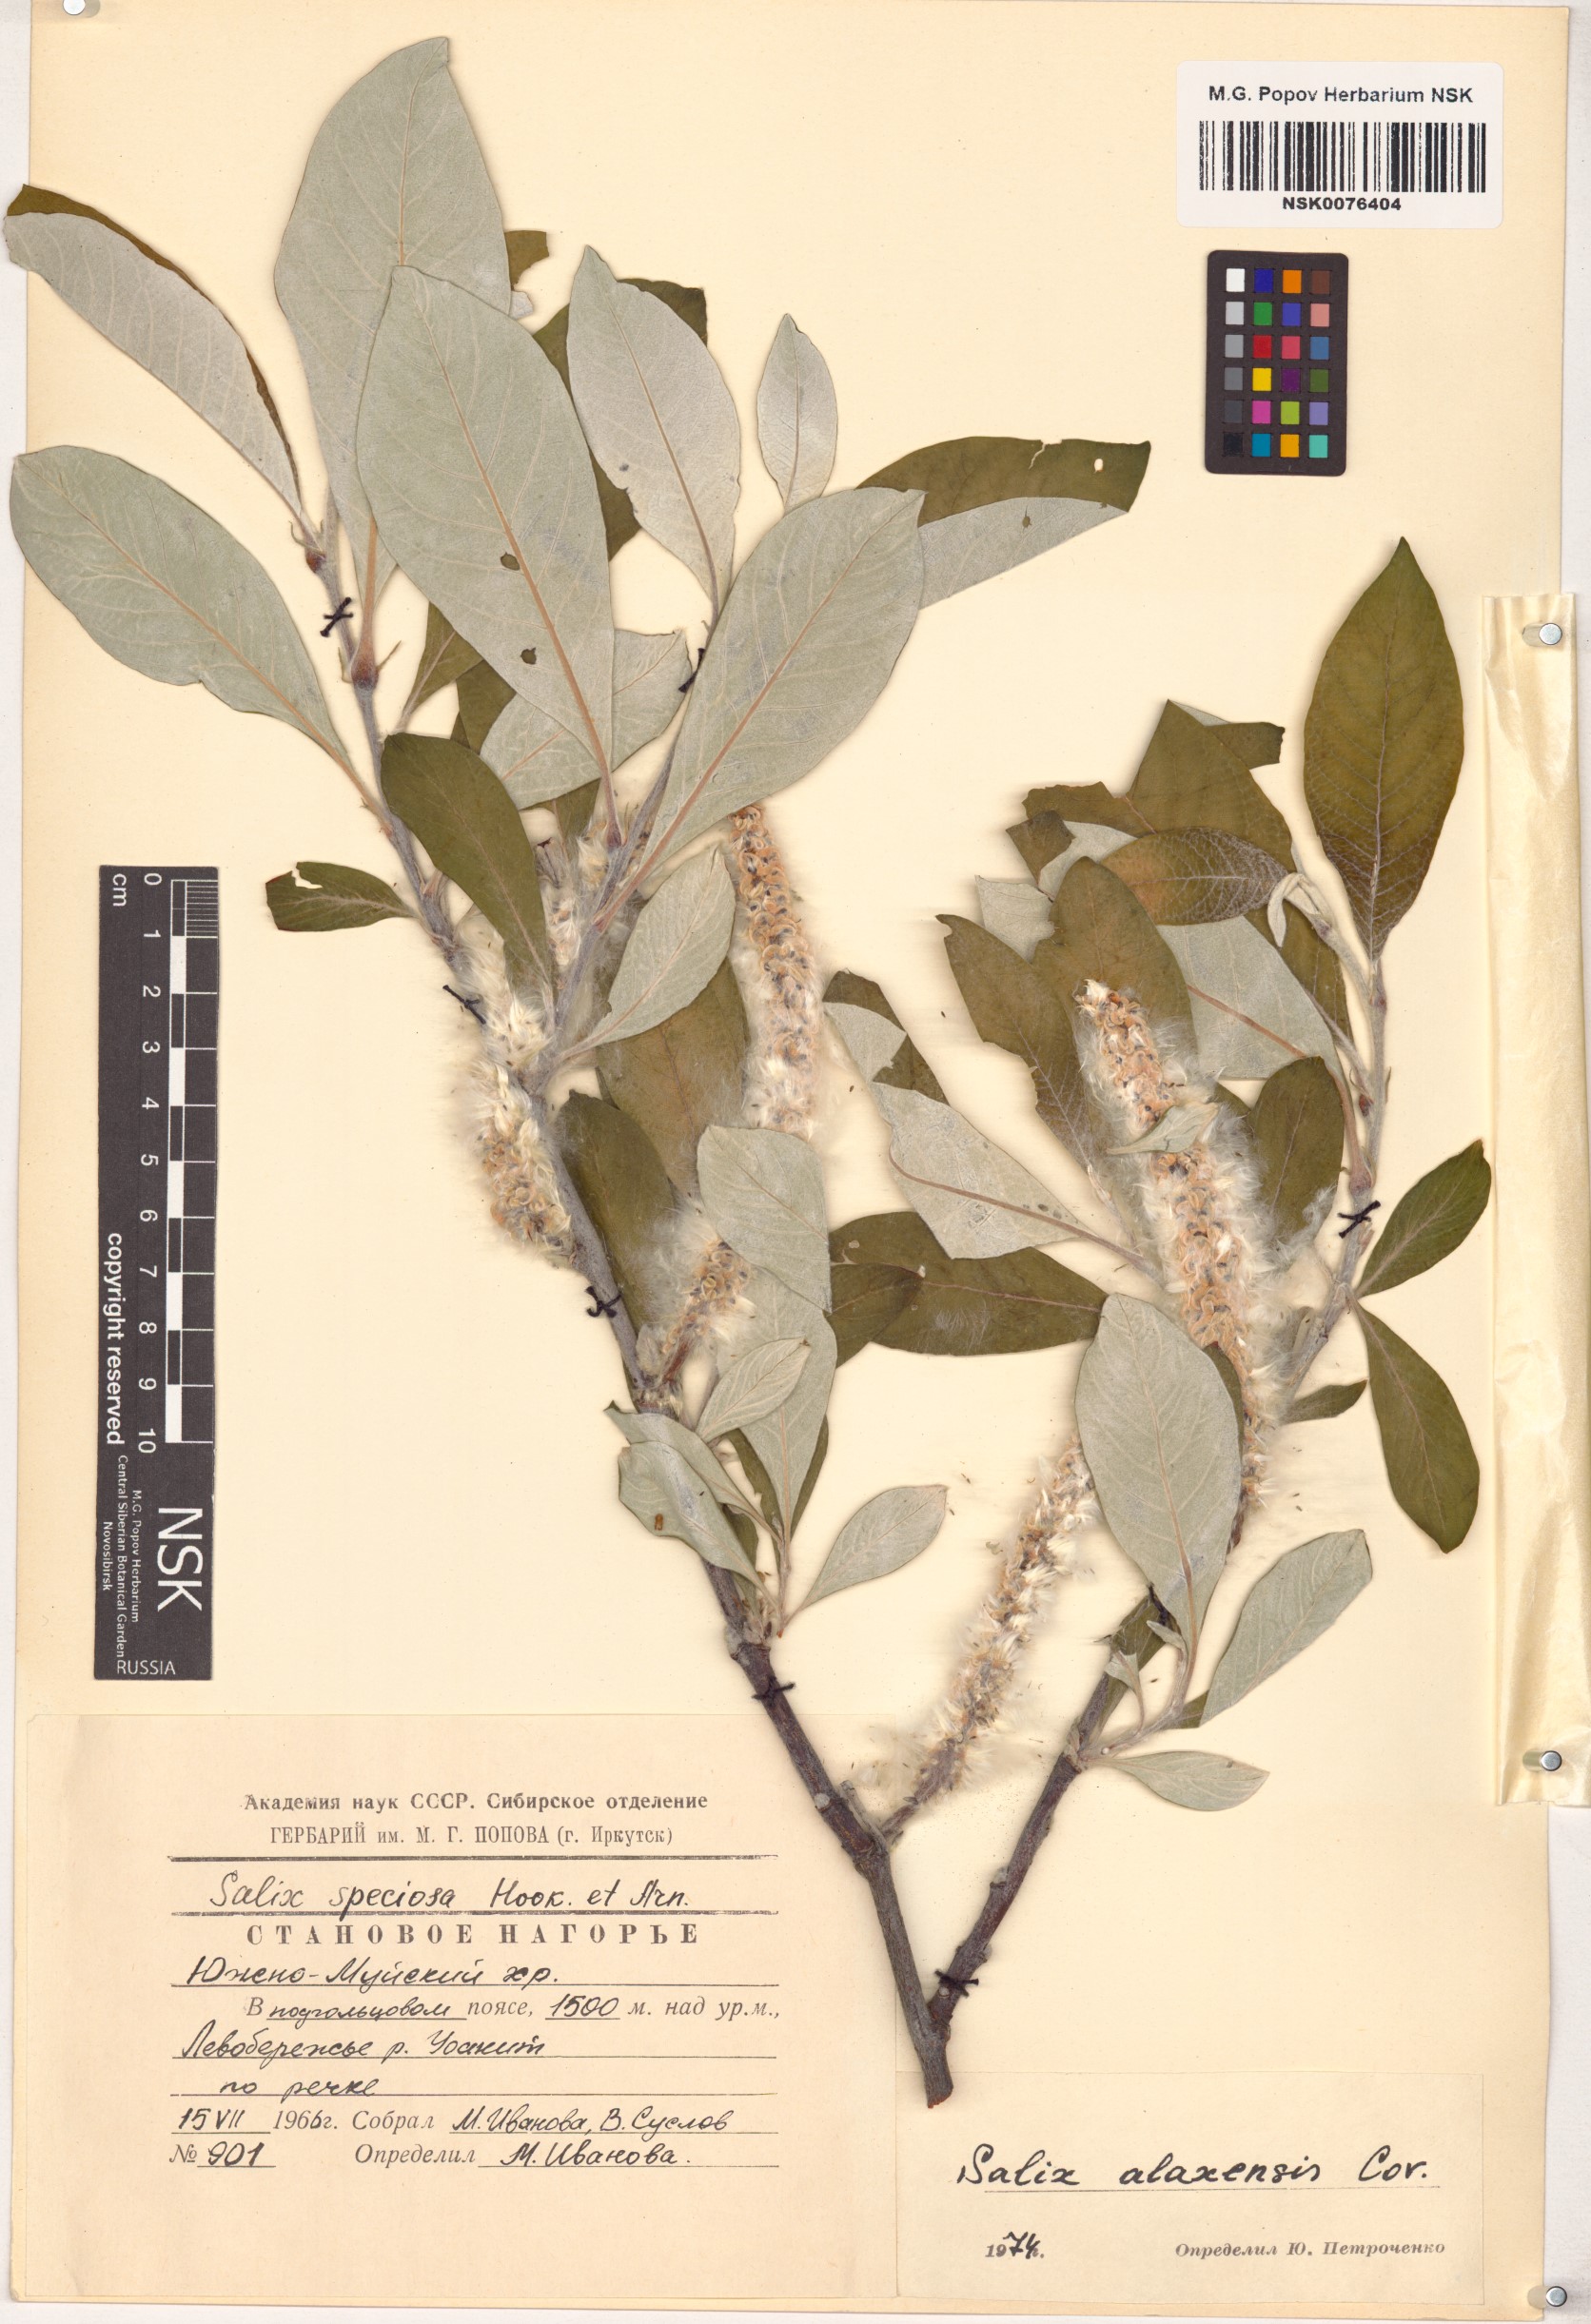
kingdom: Plantae
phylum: Tracheophyta
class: Magnoliopsida
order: Malpighiales
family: Salicaceae
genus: Salix
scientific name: Salix alaxensis
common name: Feltleaf willow
